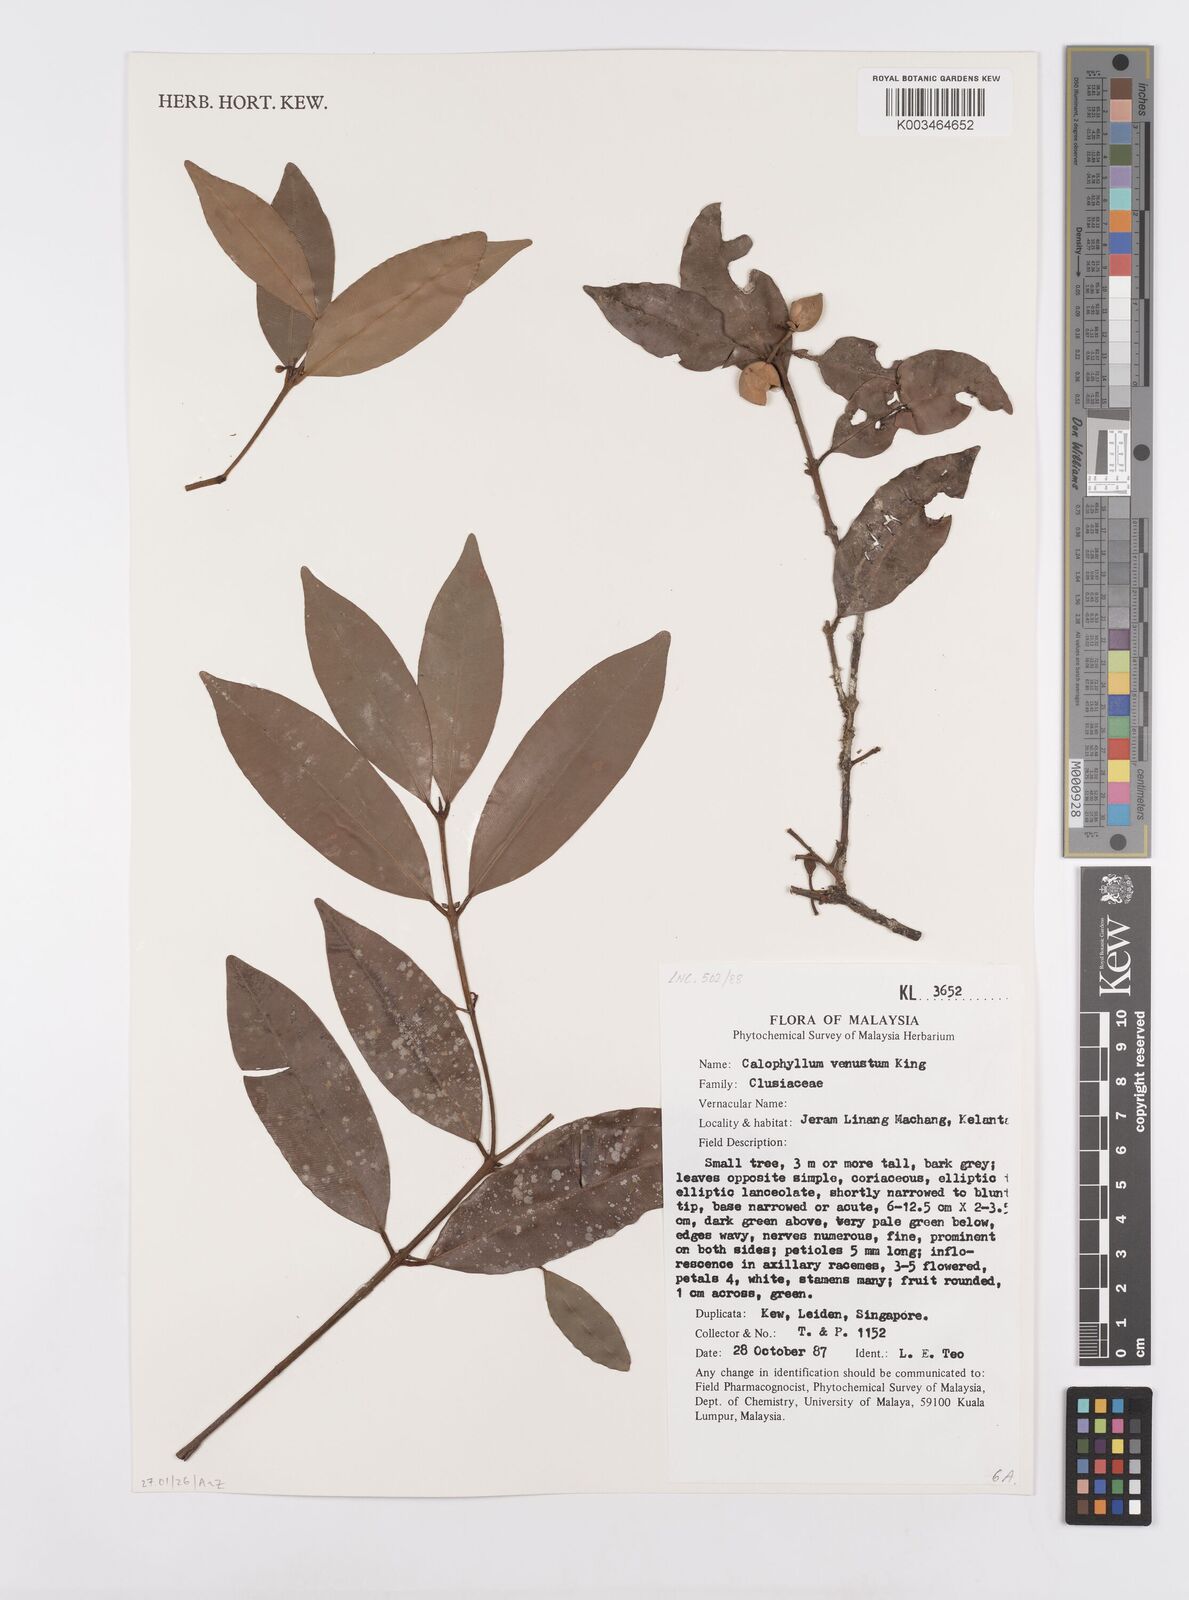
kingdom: Plantae
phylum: Tracheophyta
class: Magnoliopsida
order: Malpighiales
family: Calophyllaceae
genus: Calophyllum
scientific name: Calophyllum tetrapterum
